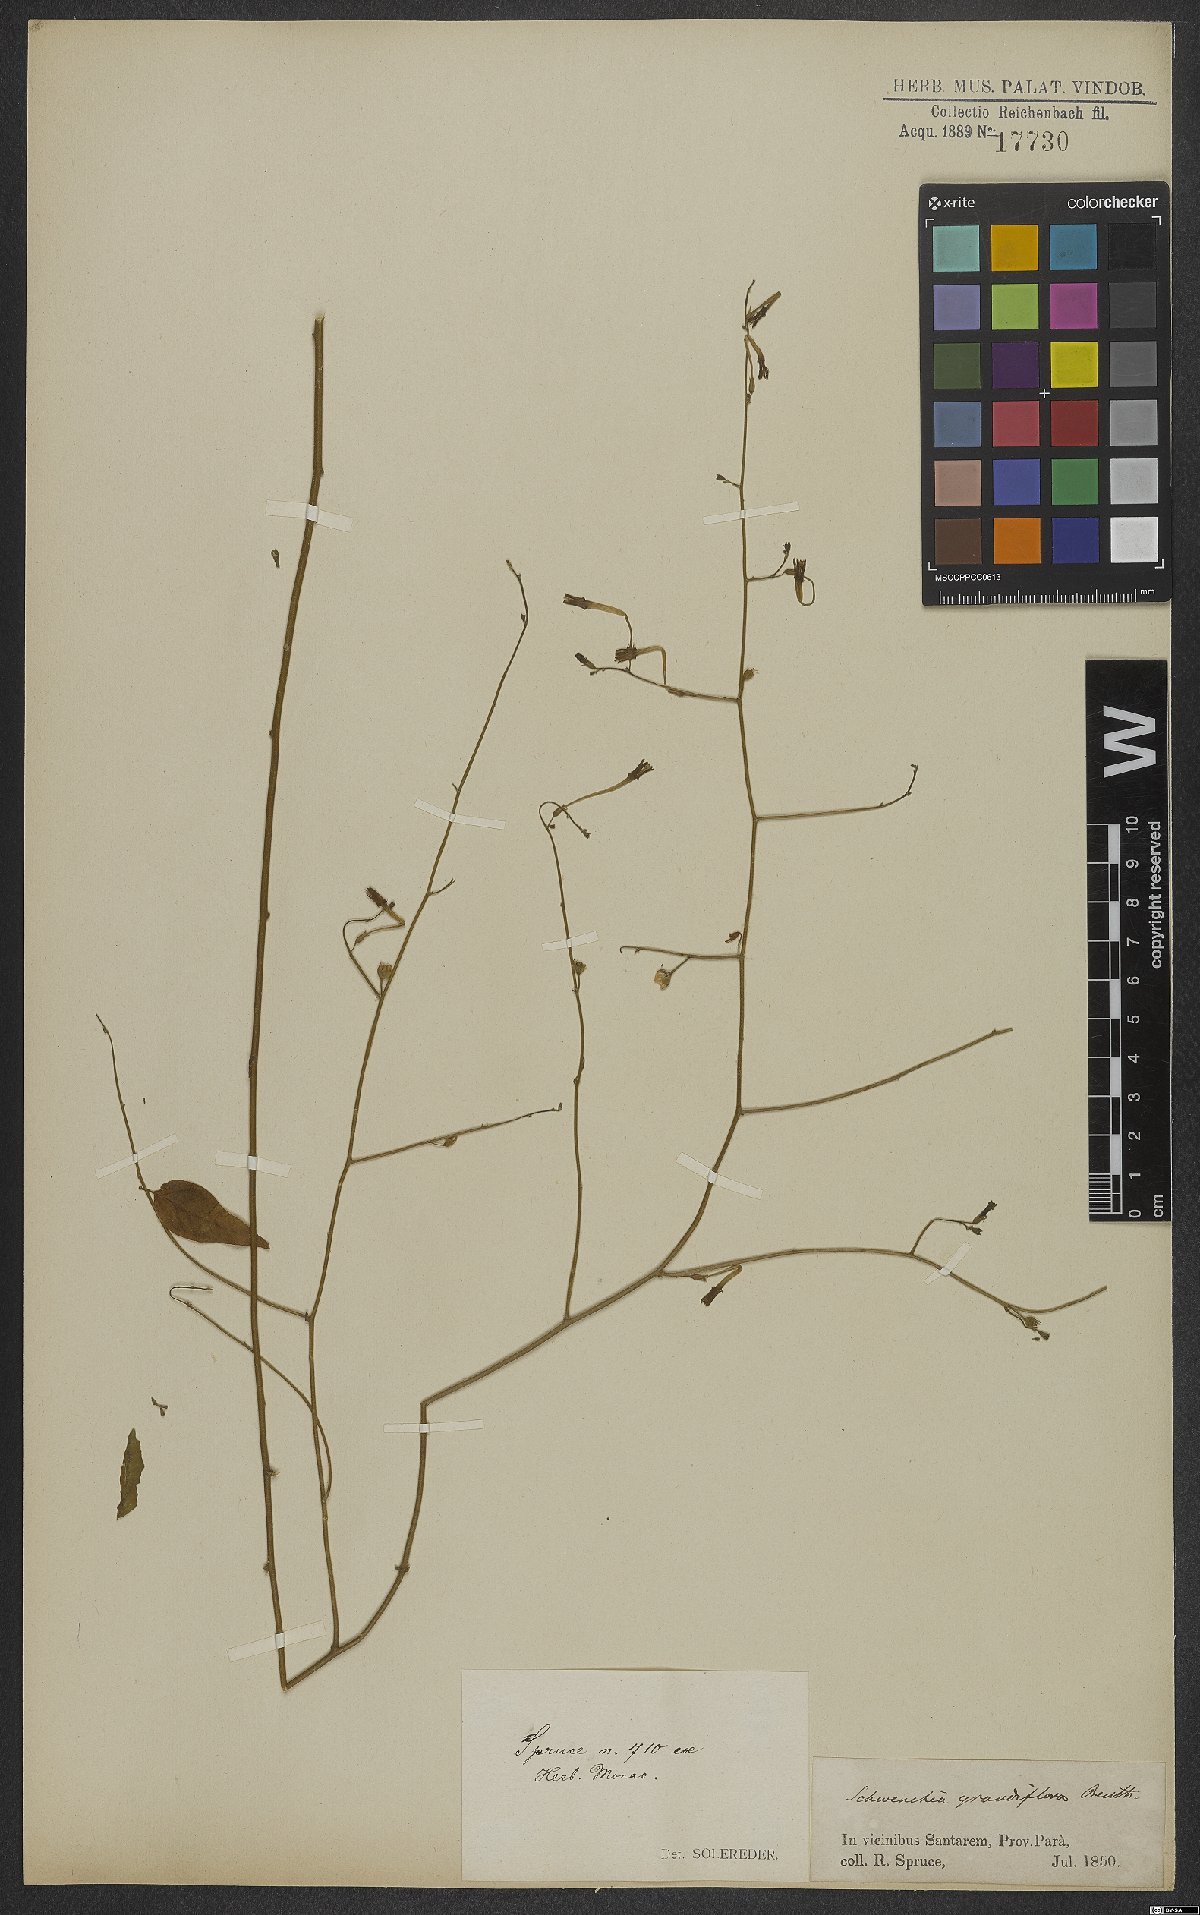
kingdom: Plantae
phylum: Tracheophyta
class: Magnoliopsida
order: Solanales
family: Solanaceae
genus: Schwenckia
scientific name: Schwenckia grandiflora
